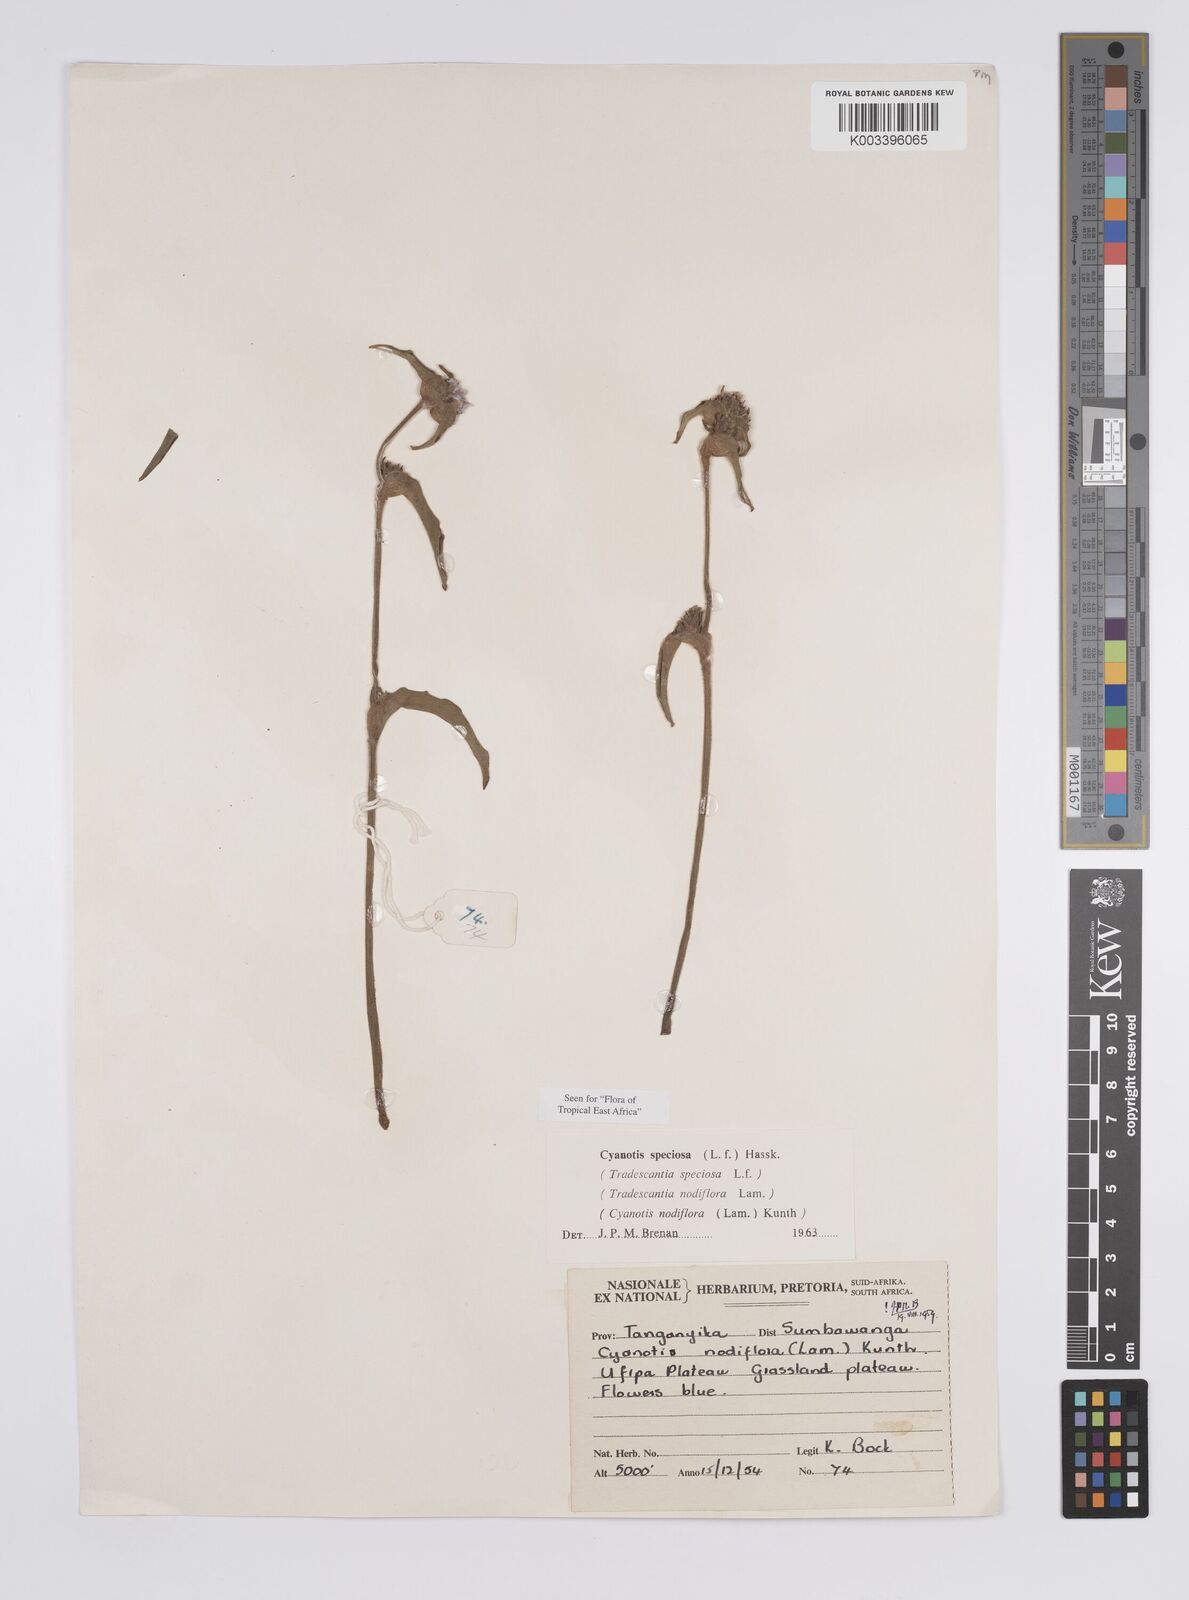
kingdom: Plantae
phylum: Tracheophyta
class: Liliopsida
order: Commelinales
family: Commelinaceae
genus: Cyanotis
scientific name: Cyanotis speciosa
